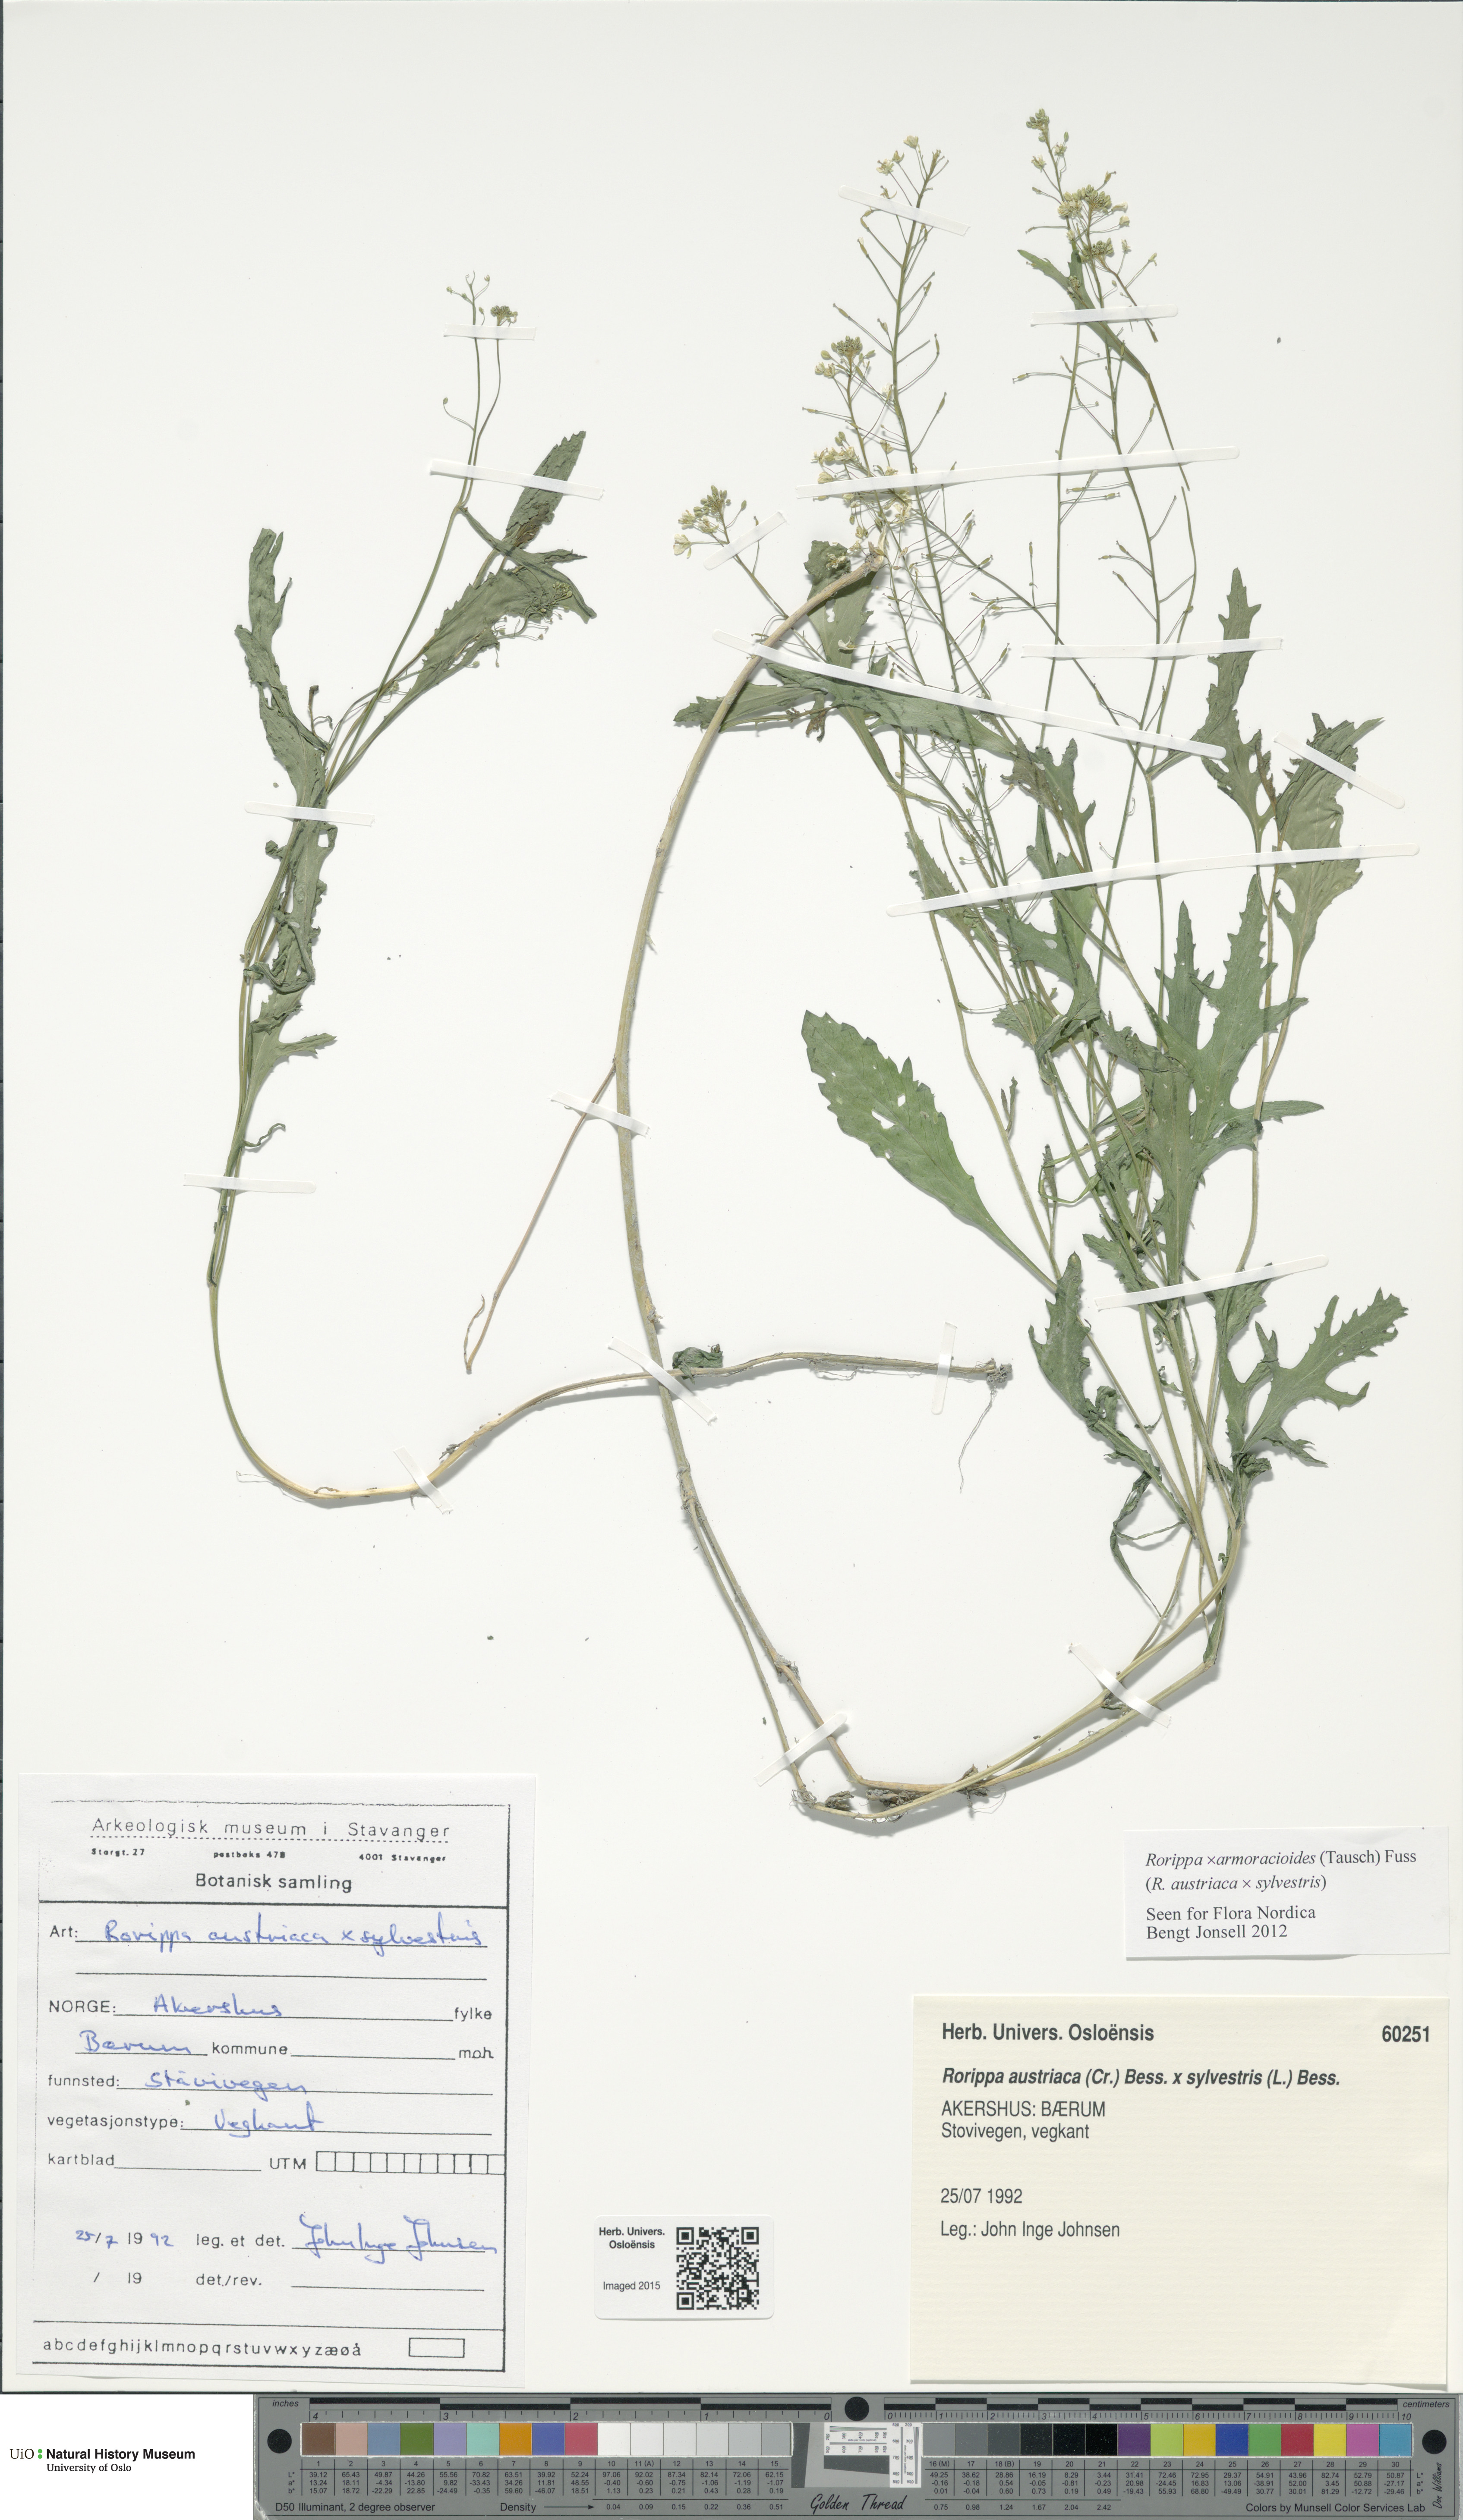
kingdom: Plantae
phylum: Tracheophyta
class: Magnoliopsida
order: Brassicales
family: Brassicaceae
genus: Rorippa
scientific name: Rorippa
